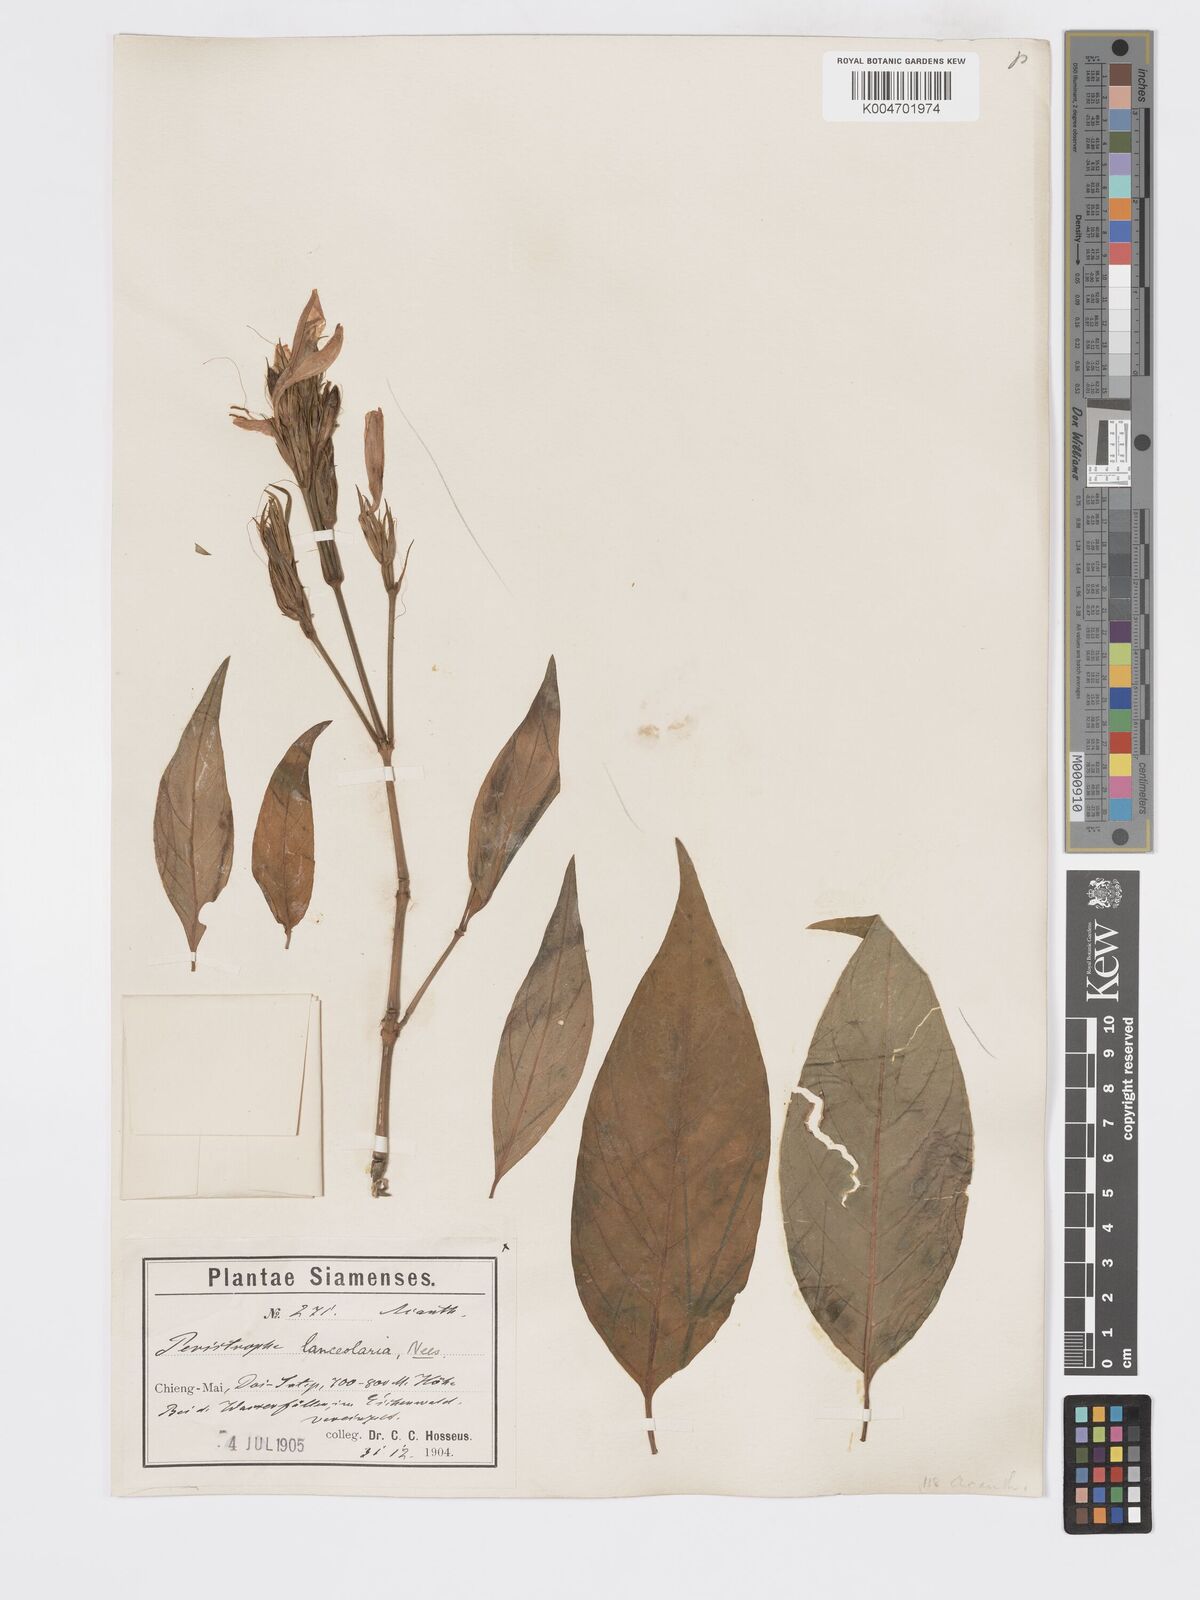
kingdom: Plantae
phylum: Tracheophyta
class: Magnoliopsida
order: Lamiales
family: Acanthaceae
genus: Dicliptera
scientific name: Dicliptera lanceolaria
